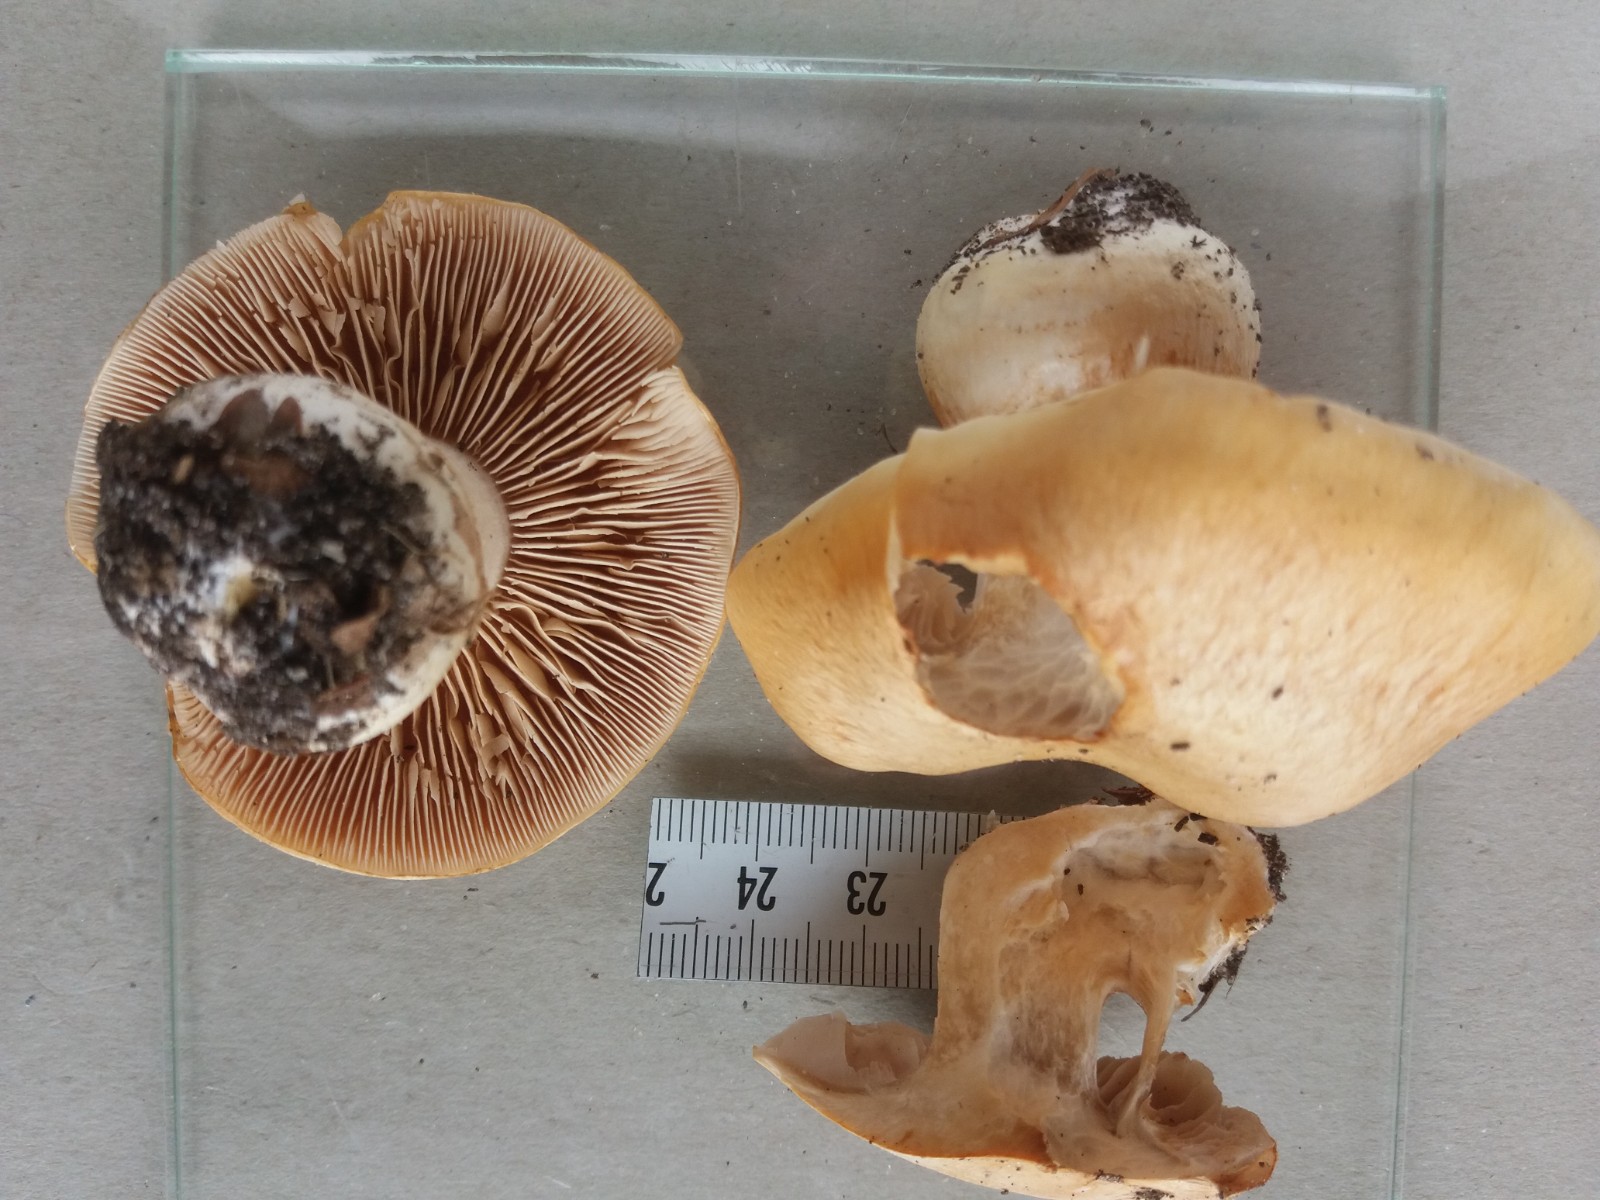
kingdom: Fungi
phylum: Basidiomycota
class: Agaricomycetes
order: Agaricales
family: Cortinariaceae
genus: Cortinarius
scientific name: Cortinarius
